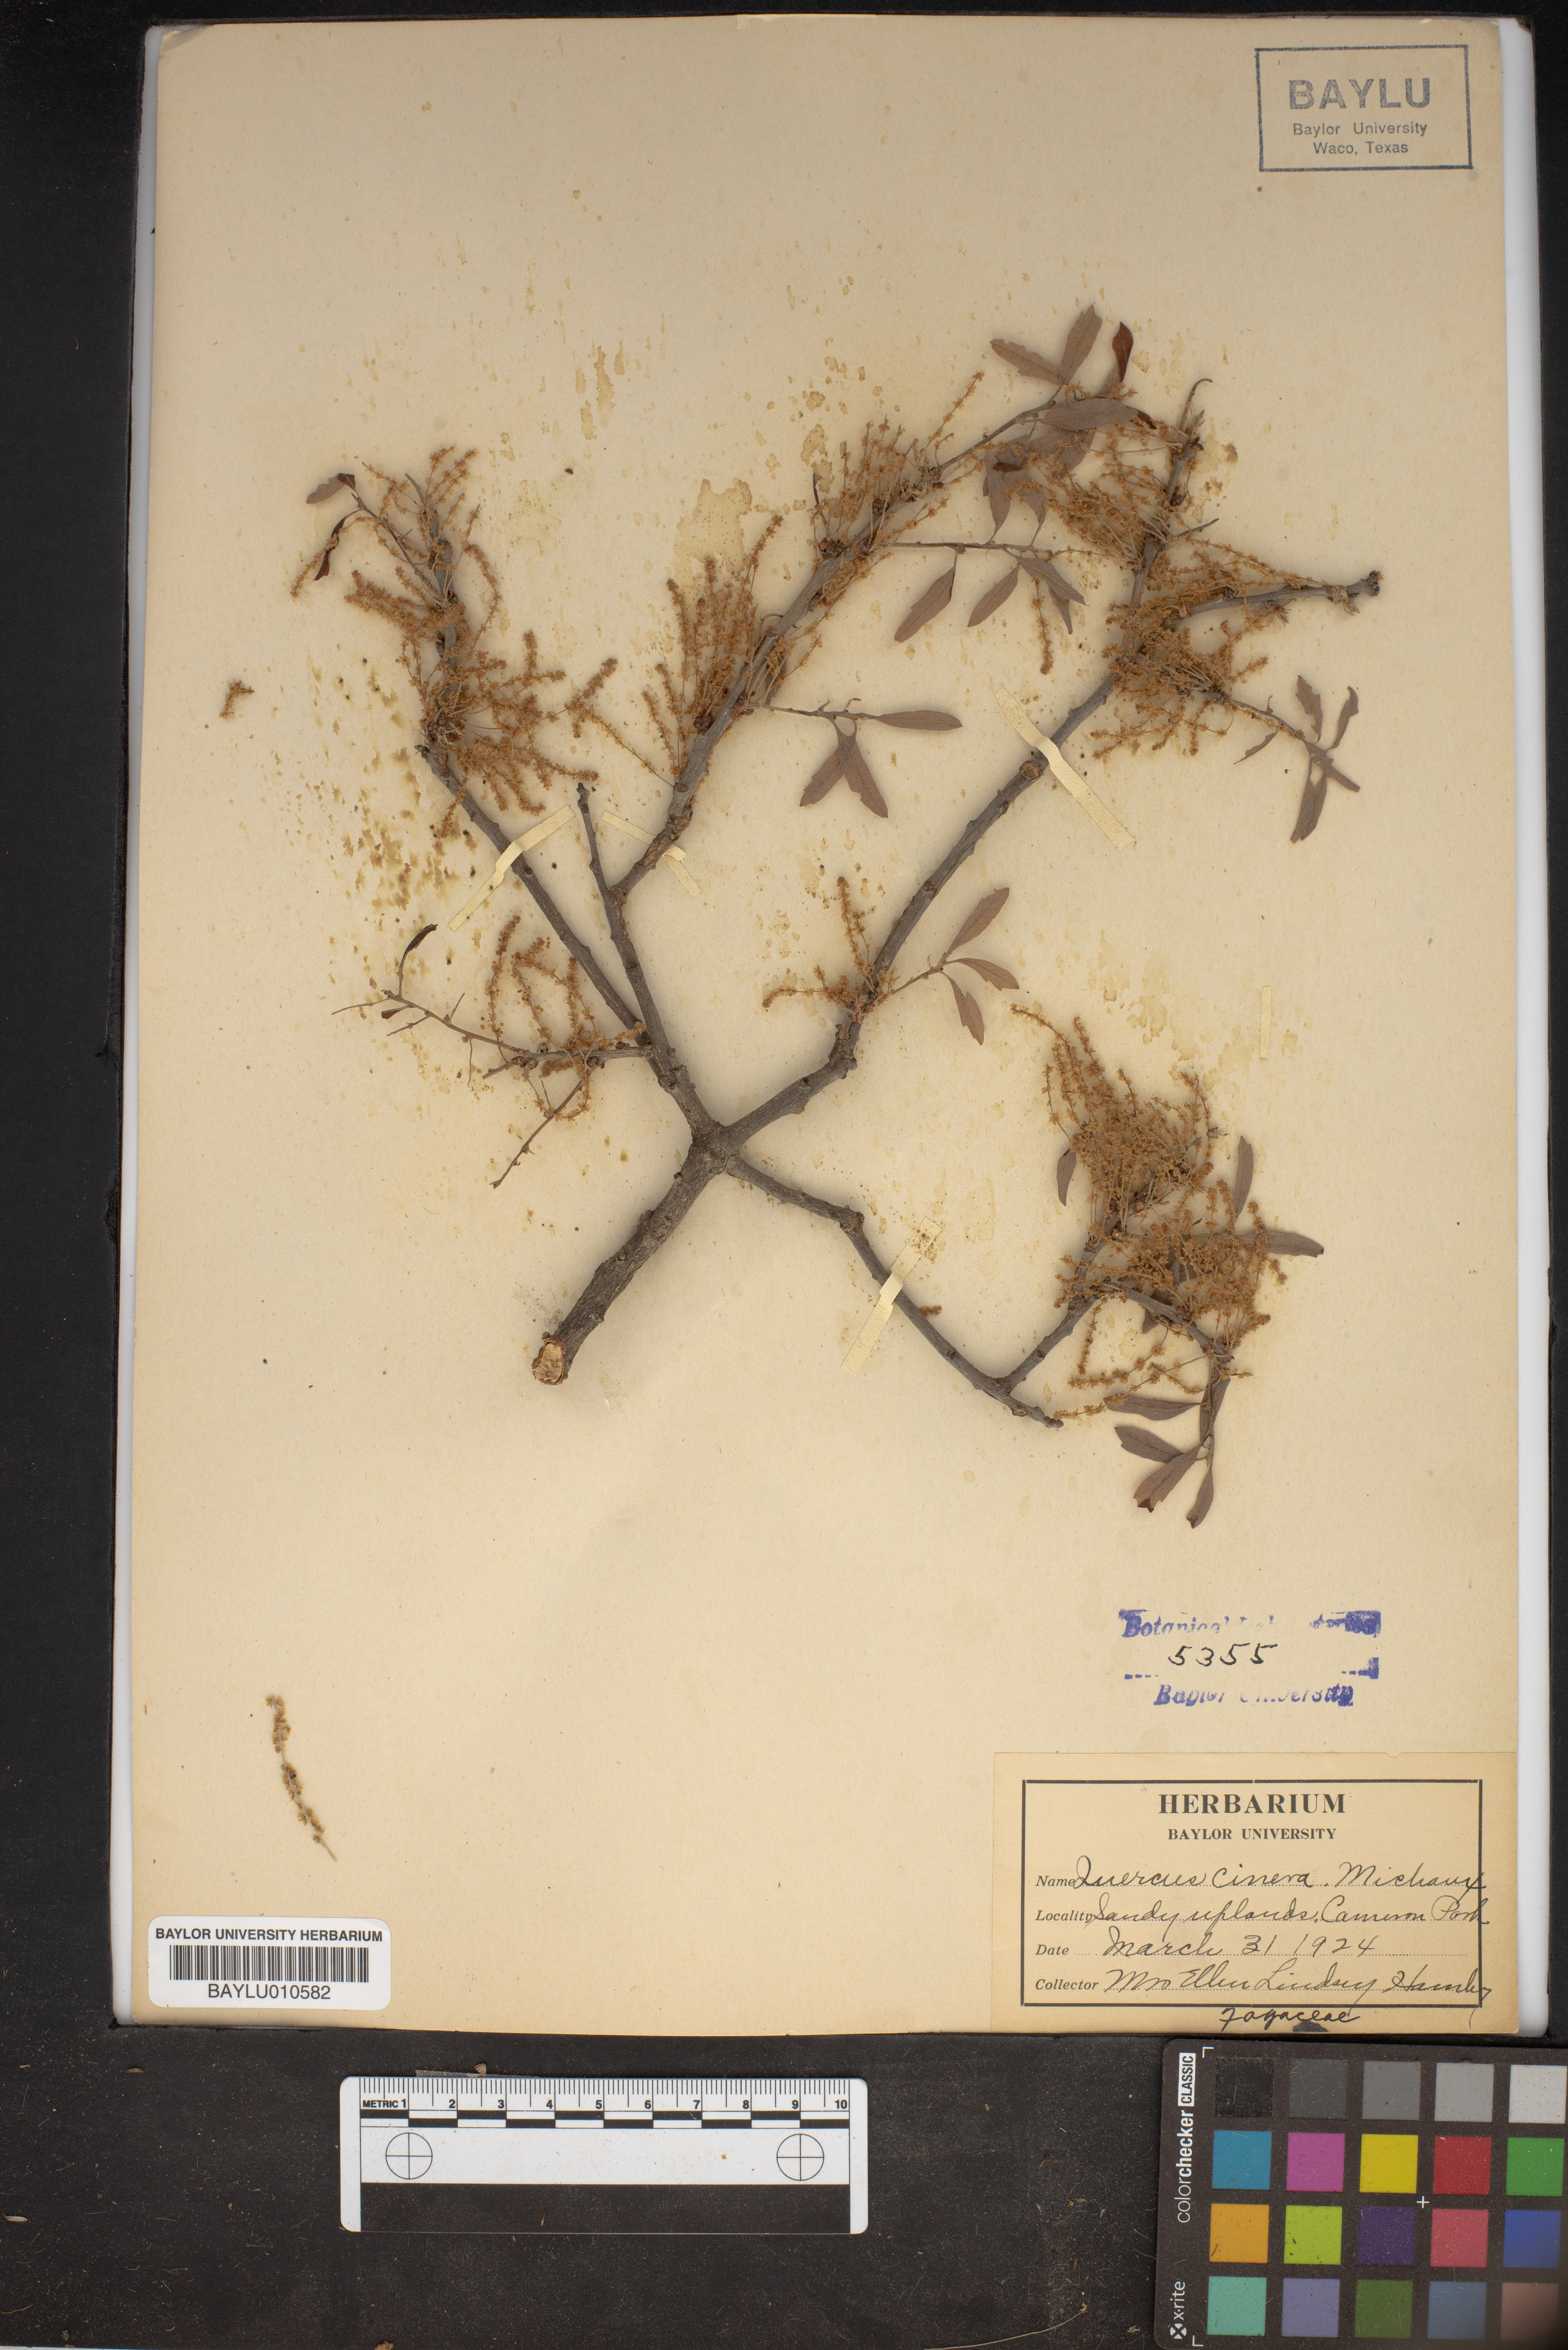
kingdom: Plantae
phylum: Tracheophyta
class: Magnoliopsida
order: Fagales
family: Fagaceae
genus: Quercus
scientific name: Quercus incana
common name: Bluejack oak
